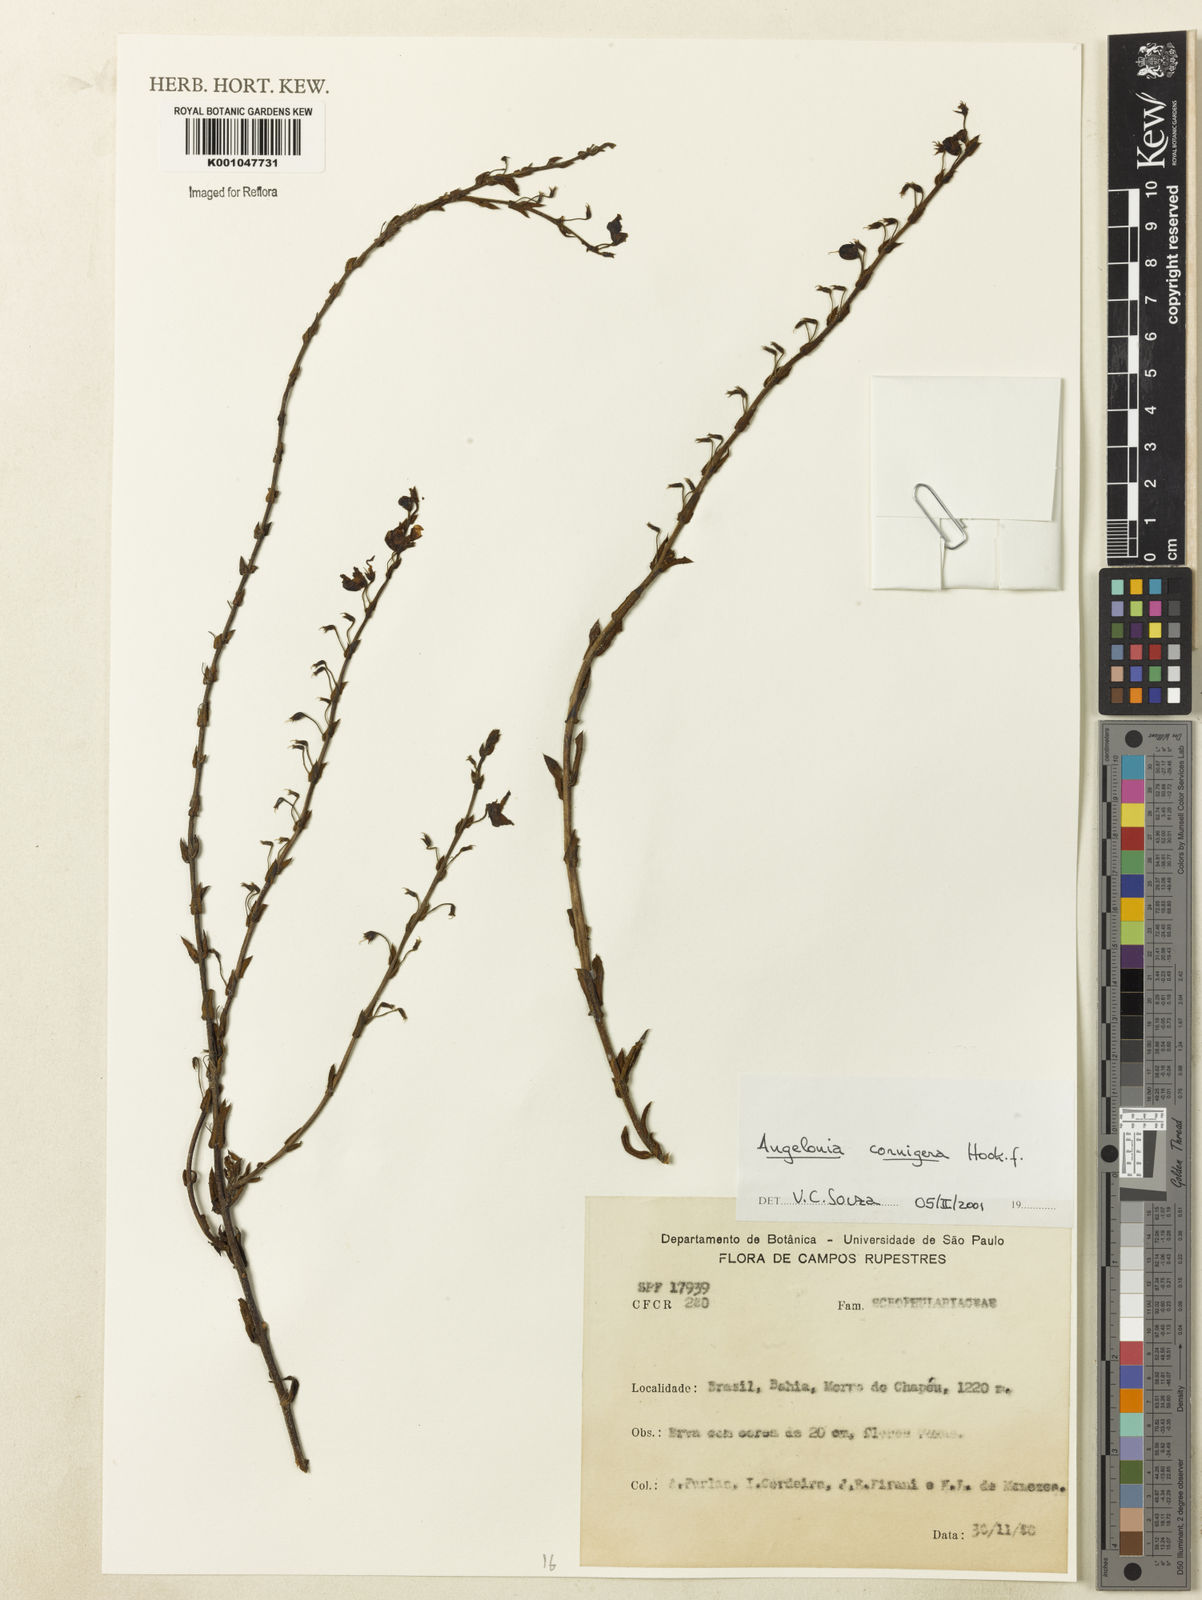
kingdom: Plantae
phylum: Tracheophyta
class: Magnoliopsida
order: Lamiales
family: Plantaginaceae
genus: Angelonia
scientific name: Angelonia cornigera
